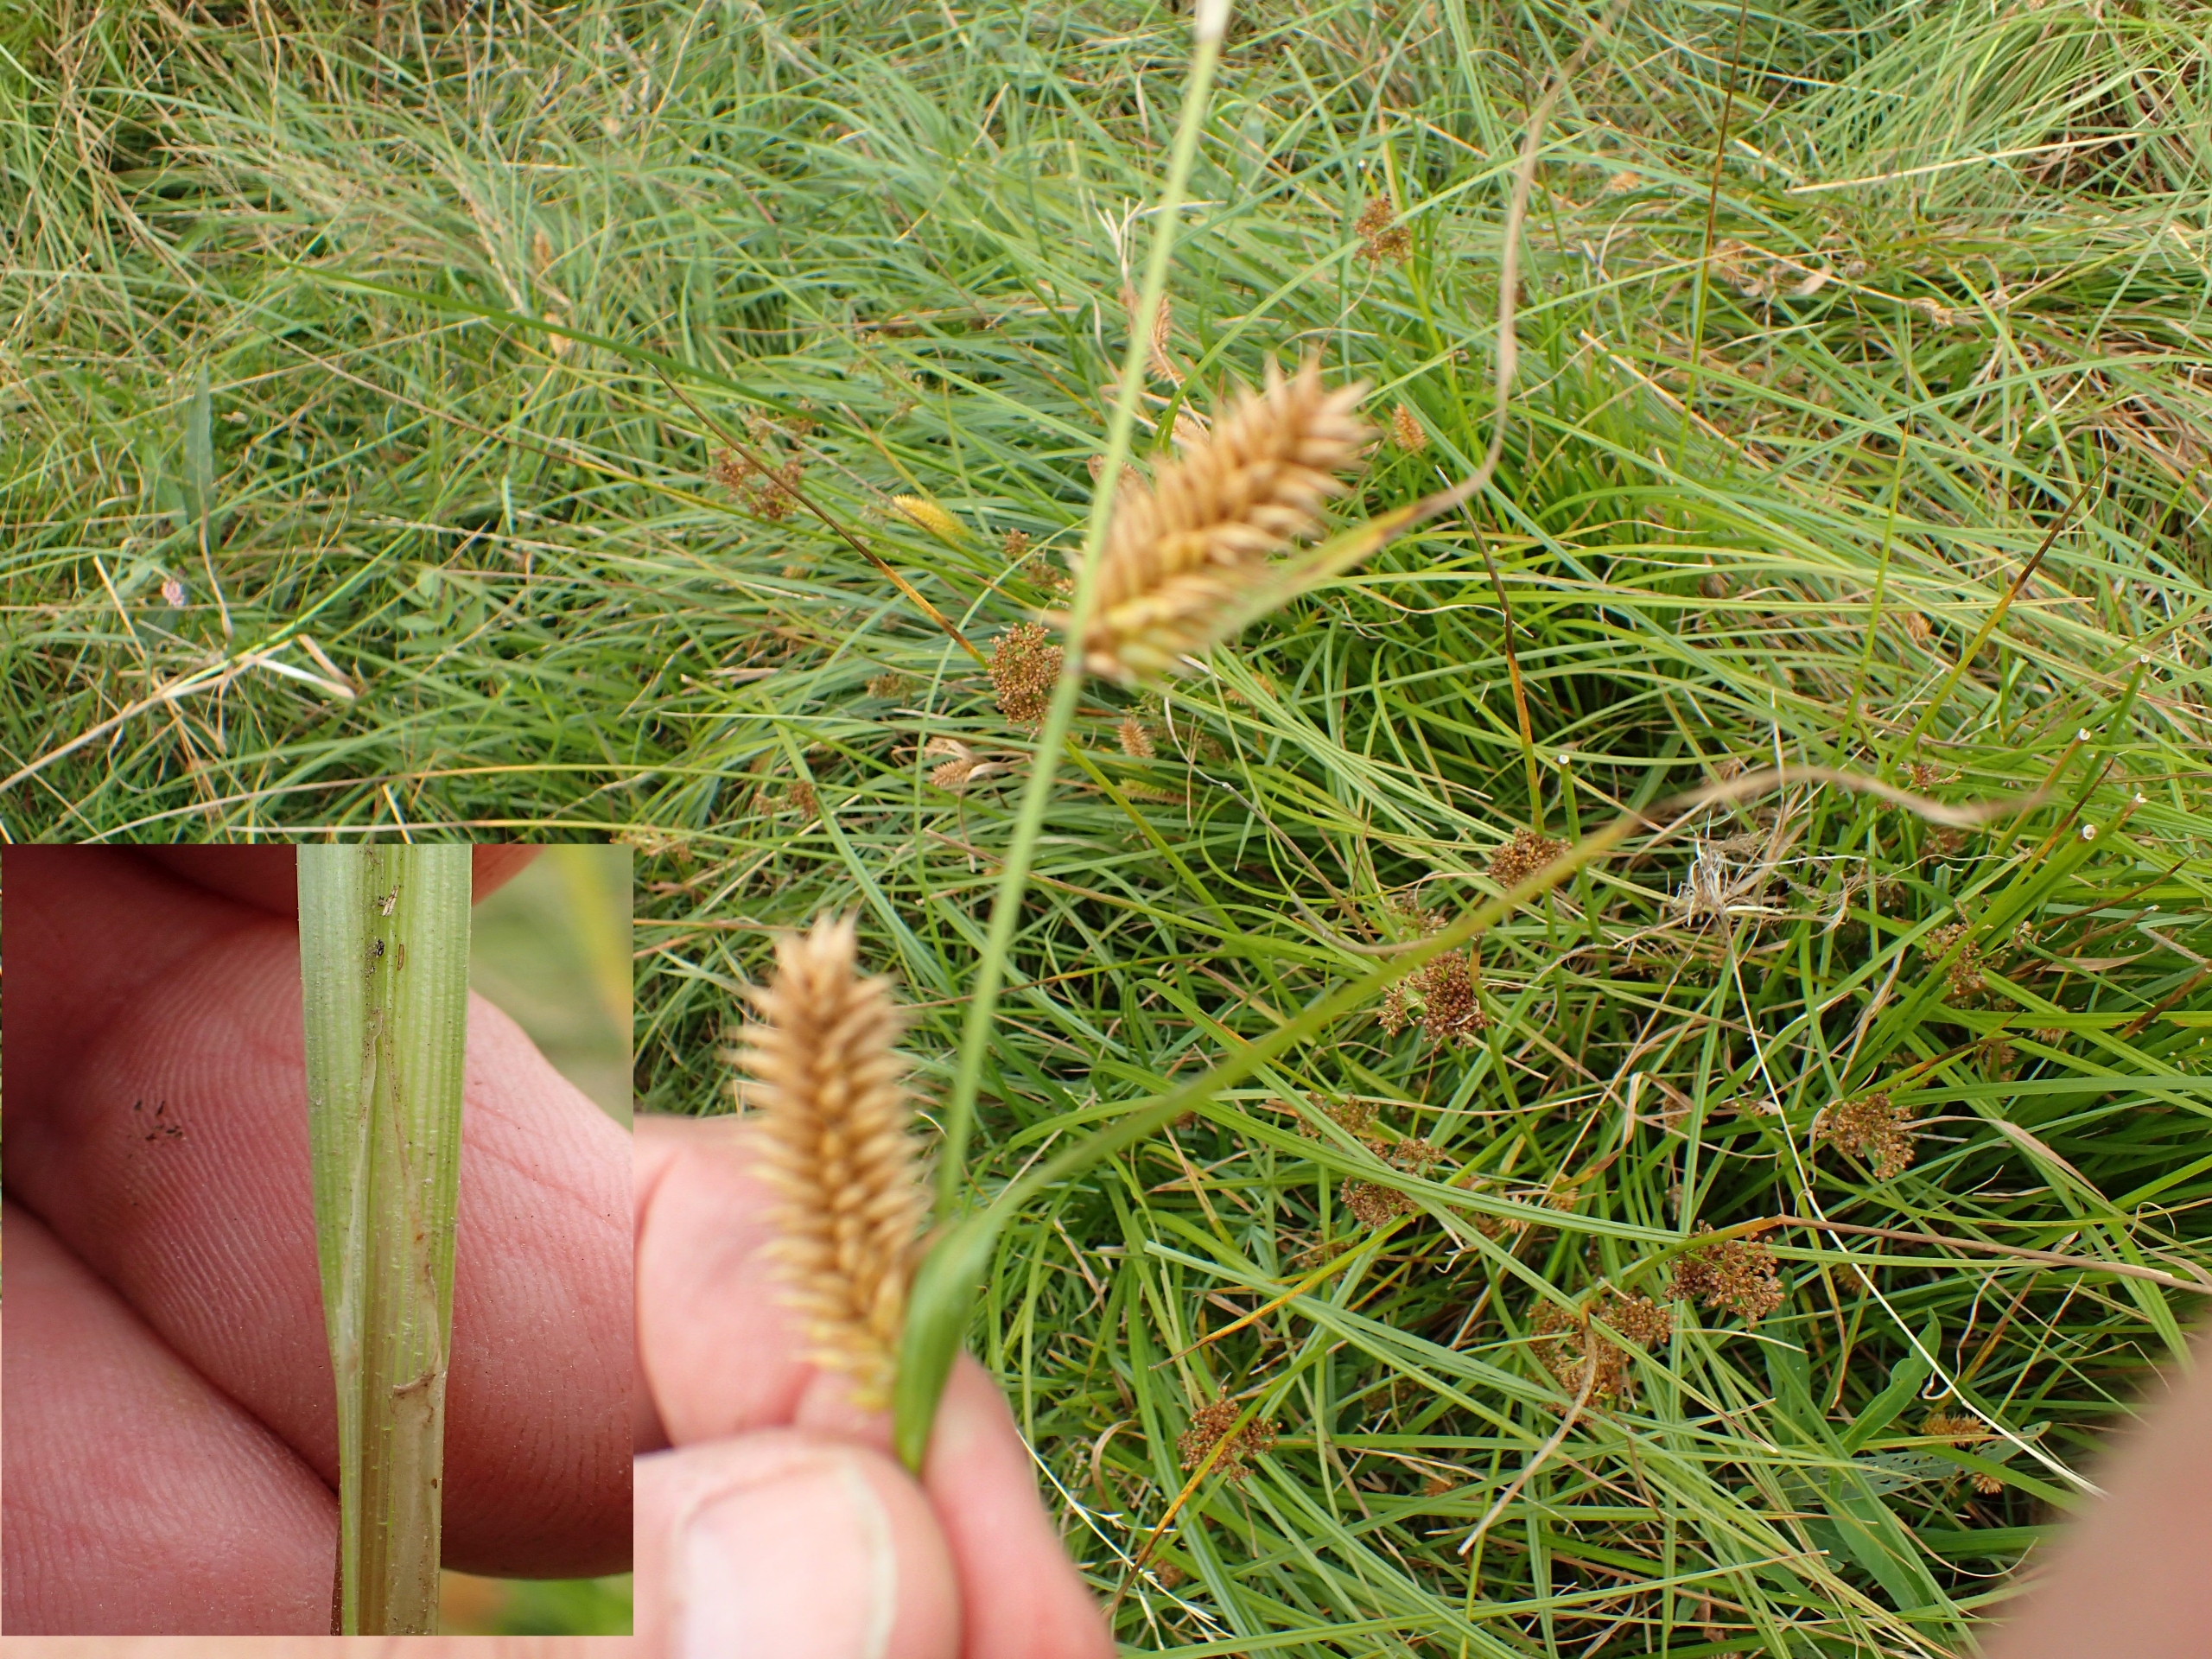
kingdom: Plantae
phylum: Tracheophyta
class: Liliopsida
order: Poales
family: Cyperaceae
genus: Carex
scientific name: Carex vesicaria
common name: Blære-star
